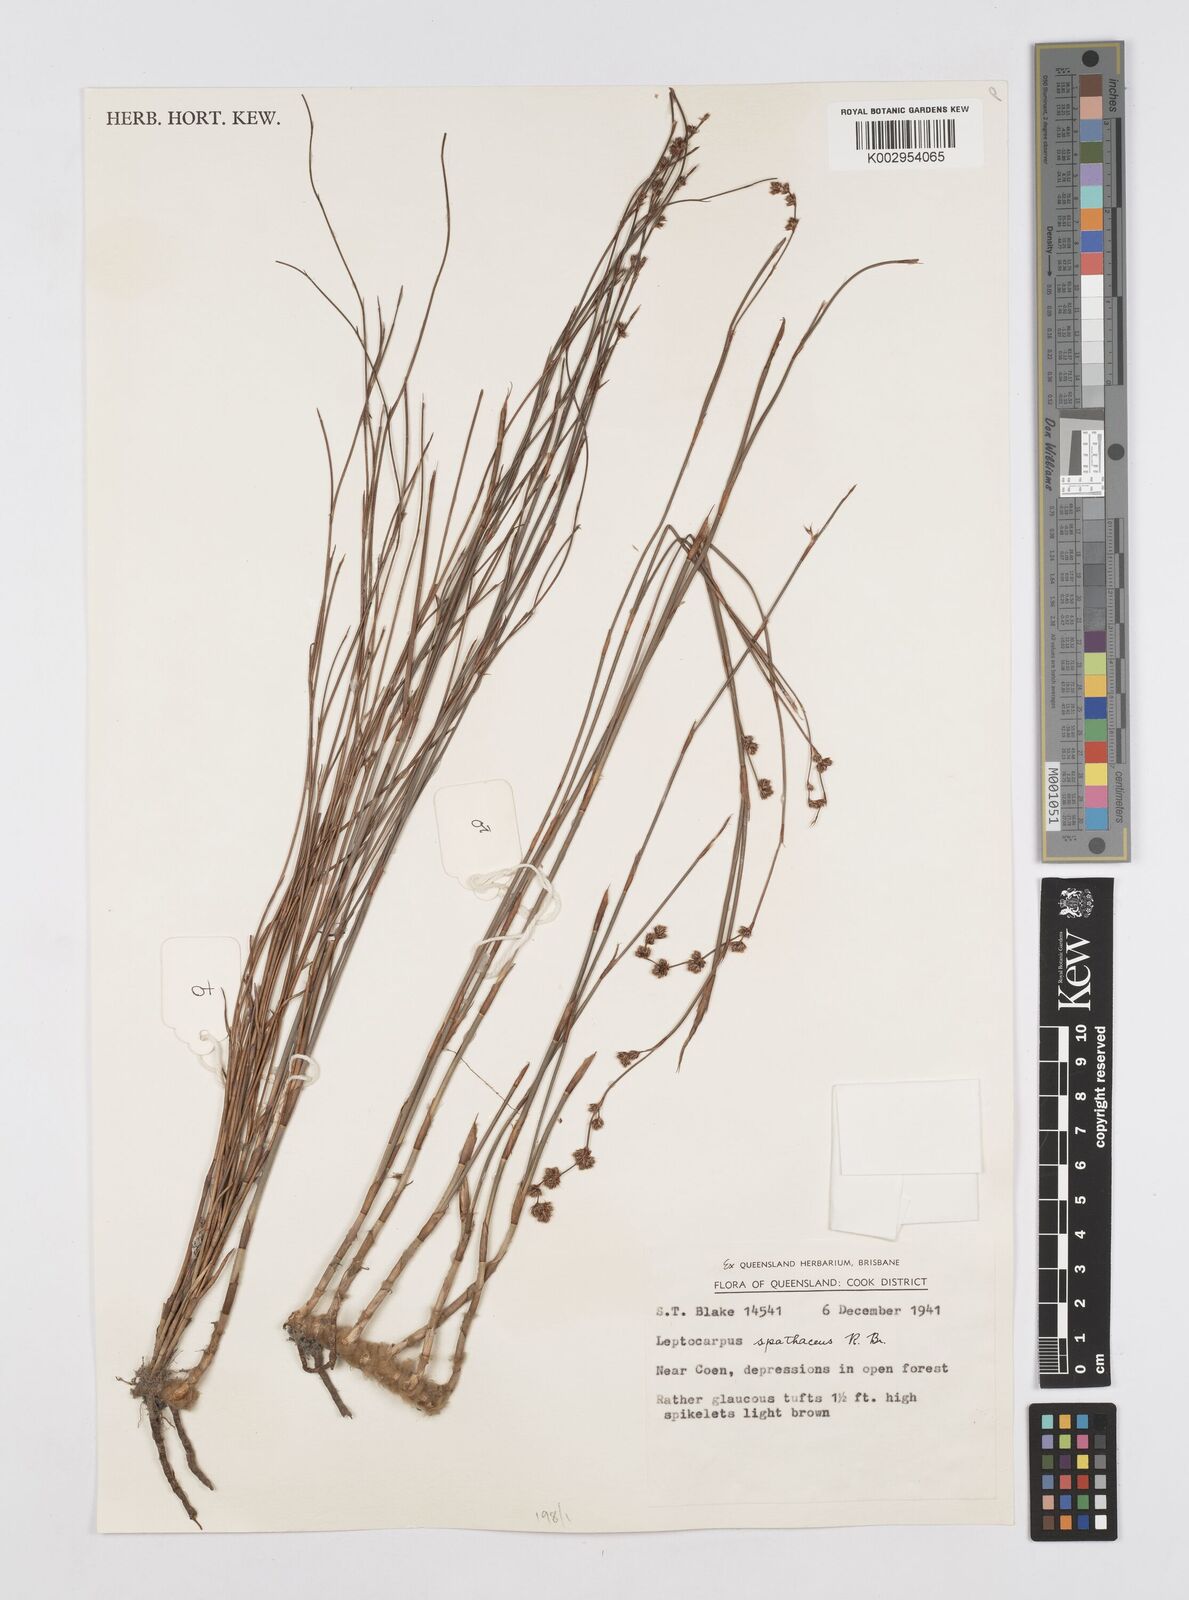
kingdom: Plantae
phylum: Tracheophyta
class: Liliopsida
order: Poales
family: Restionaceae
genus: Dapsilanthus
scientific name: Dapsilanthus spathaceus
